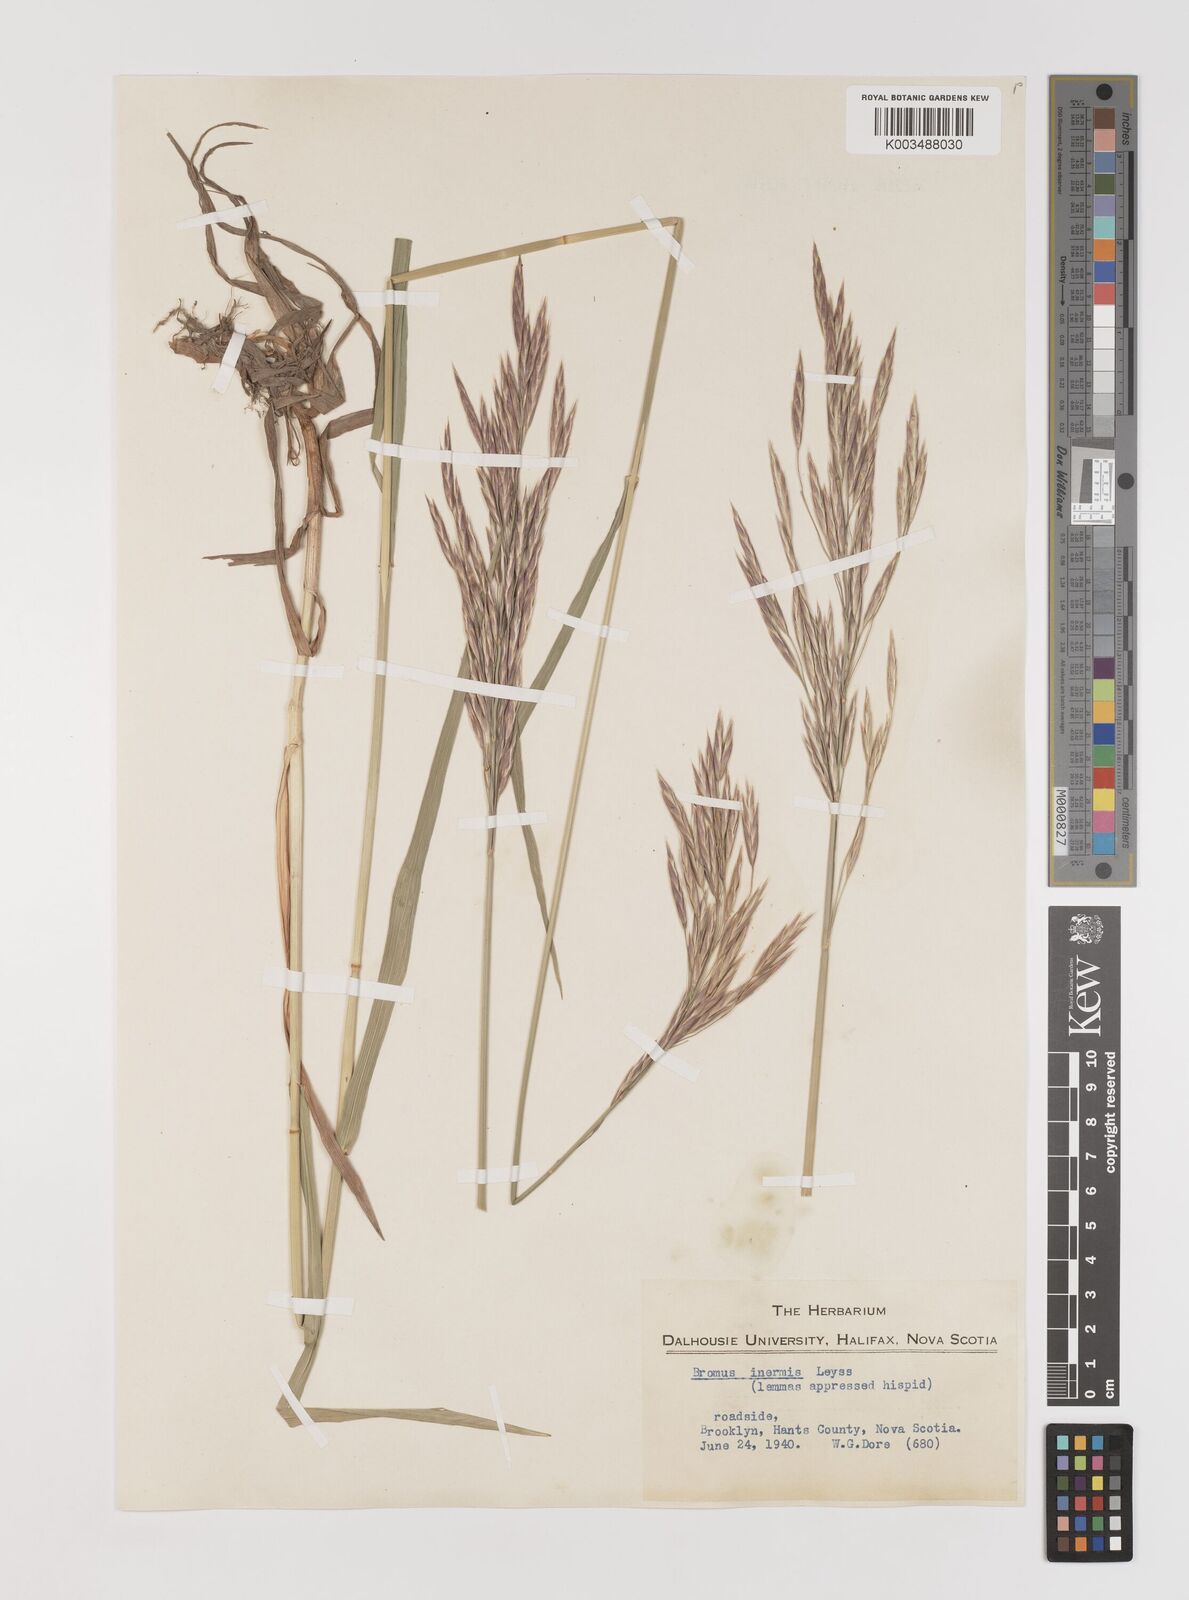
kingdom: Plantae
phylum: Tracheophyta
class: Liliopsida
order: Poales
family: Poaceae
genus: Bromus
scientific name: Bromus inermis
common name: Smooth brome
